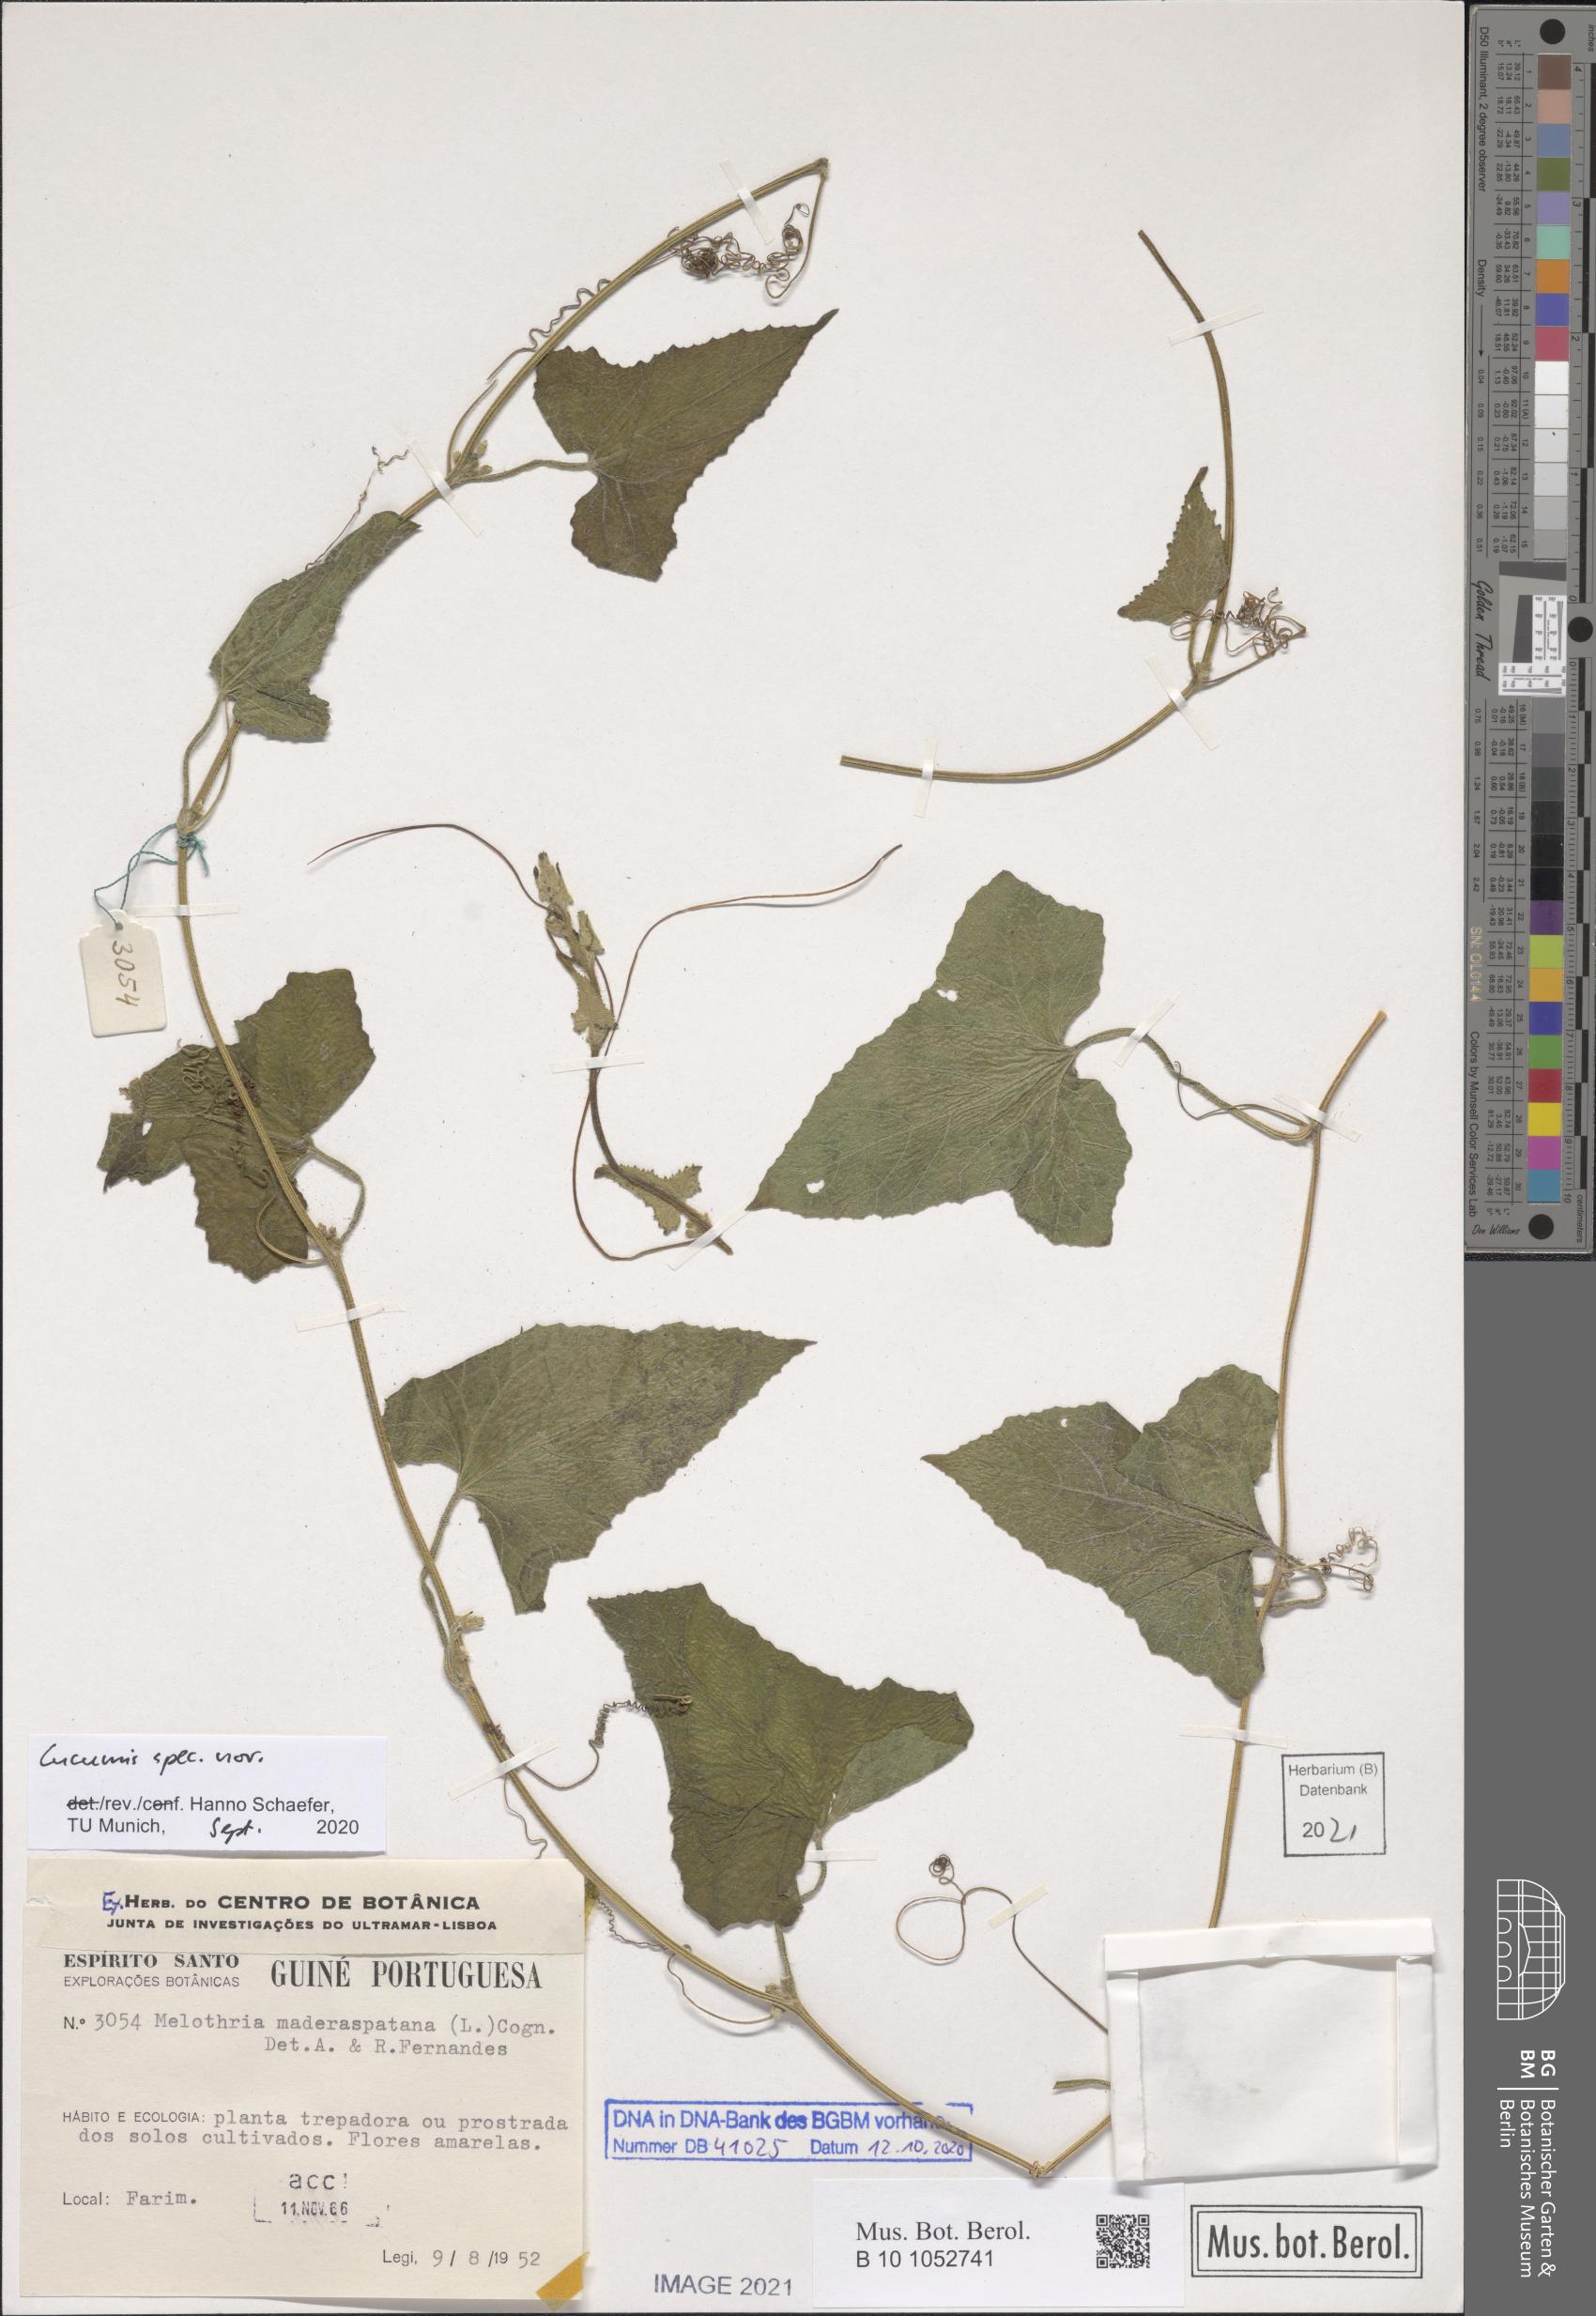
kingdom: Plantae
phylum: Tracheophyta
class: Magnoliopsida
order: Cucurbitales
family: Cucurbitaceae
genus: Cucumis
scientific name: Cucumis
